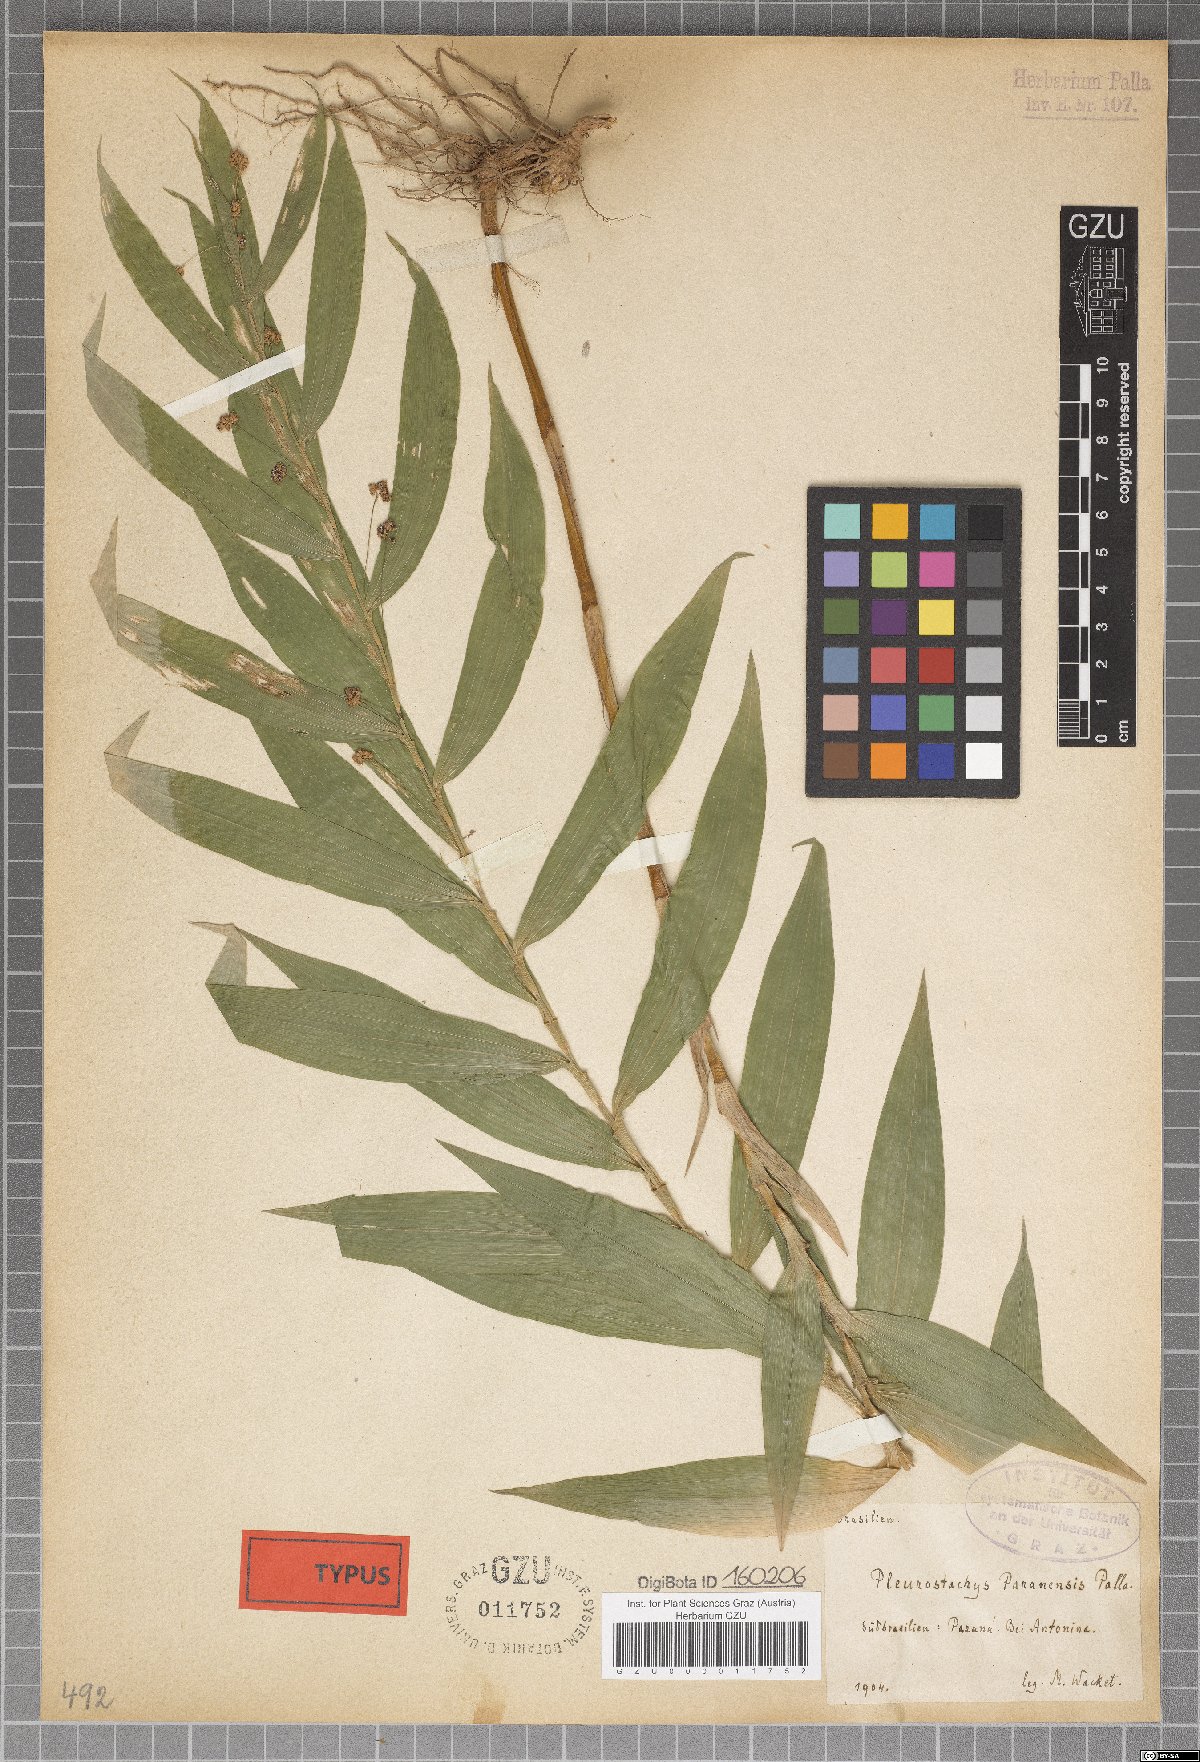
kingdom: Plantae
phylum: Tracheophyta
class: Liliopsida
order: Poales
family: Cyperaceae
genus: Rhynchospora
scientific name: Rhynchospora Pleurostachys ulei
